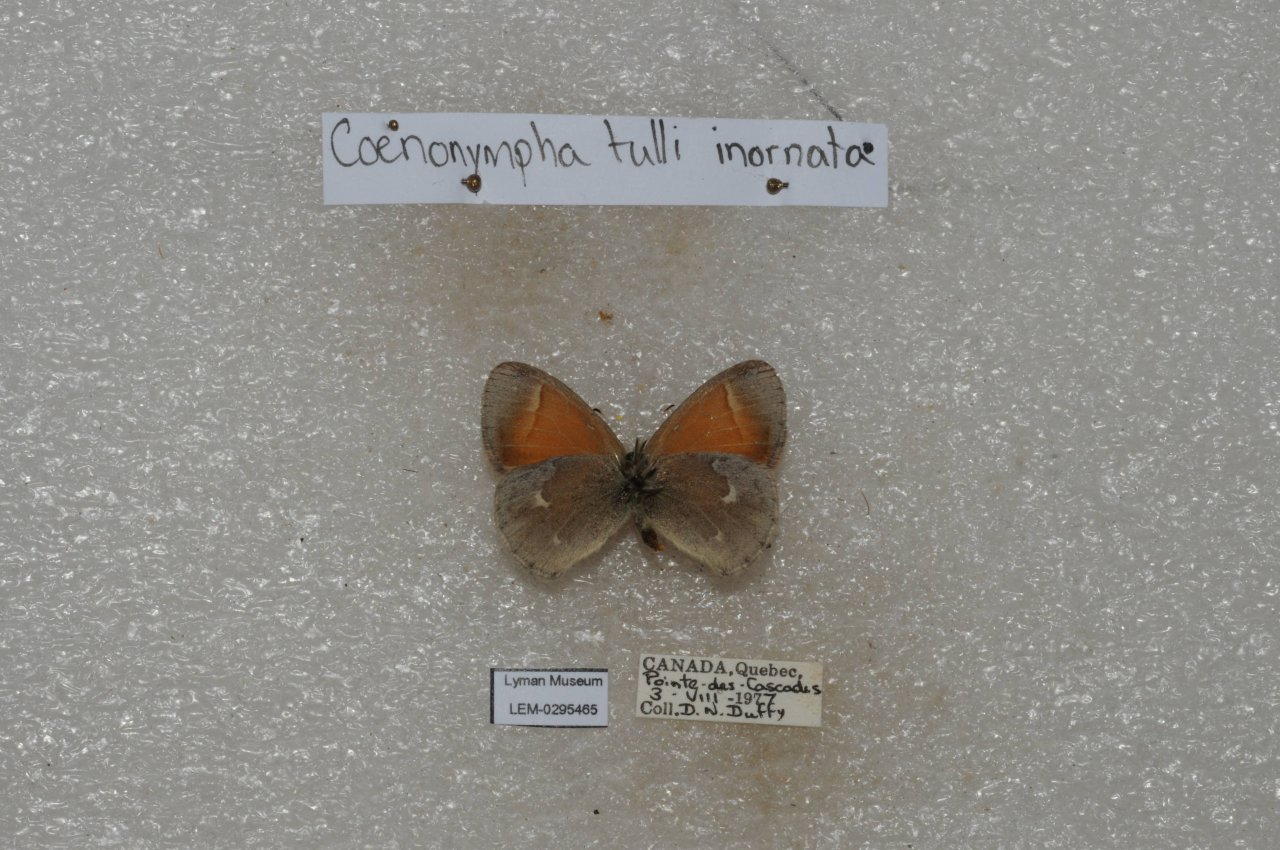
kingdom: Animalia
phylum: Arthropoda
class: Insecta
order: Lepidoptera
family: Nymphalidae
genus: Coenonympha
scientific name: Coenonympha tullia
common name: Large Heath
